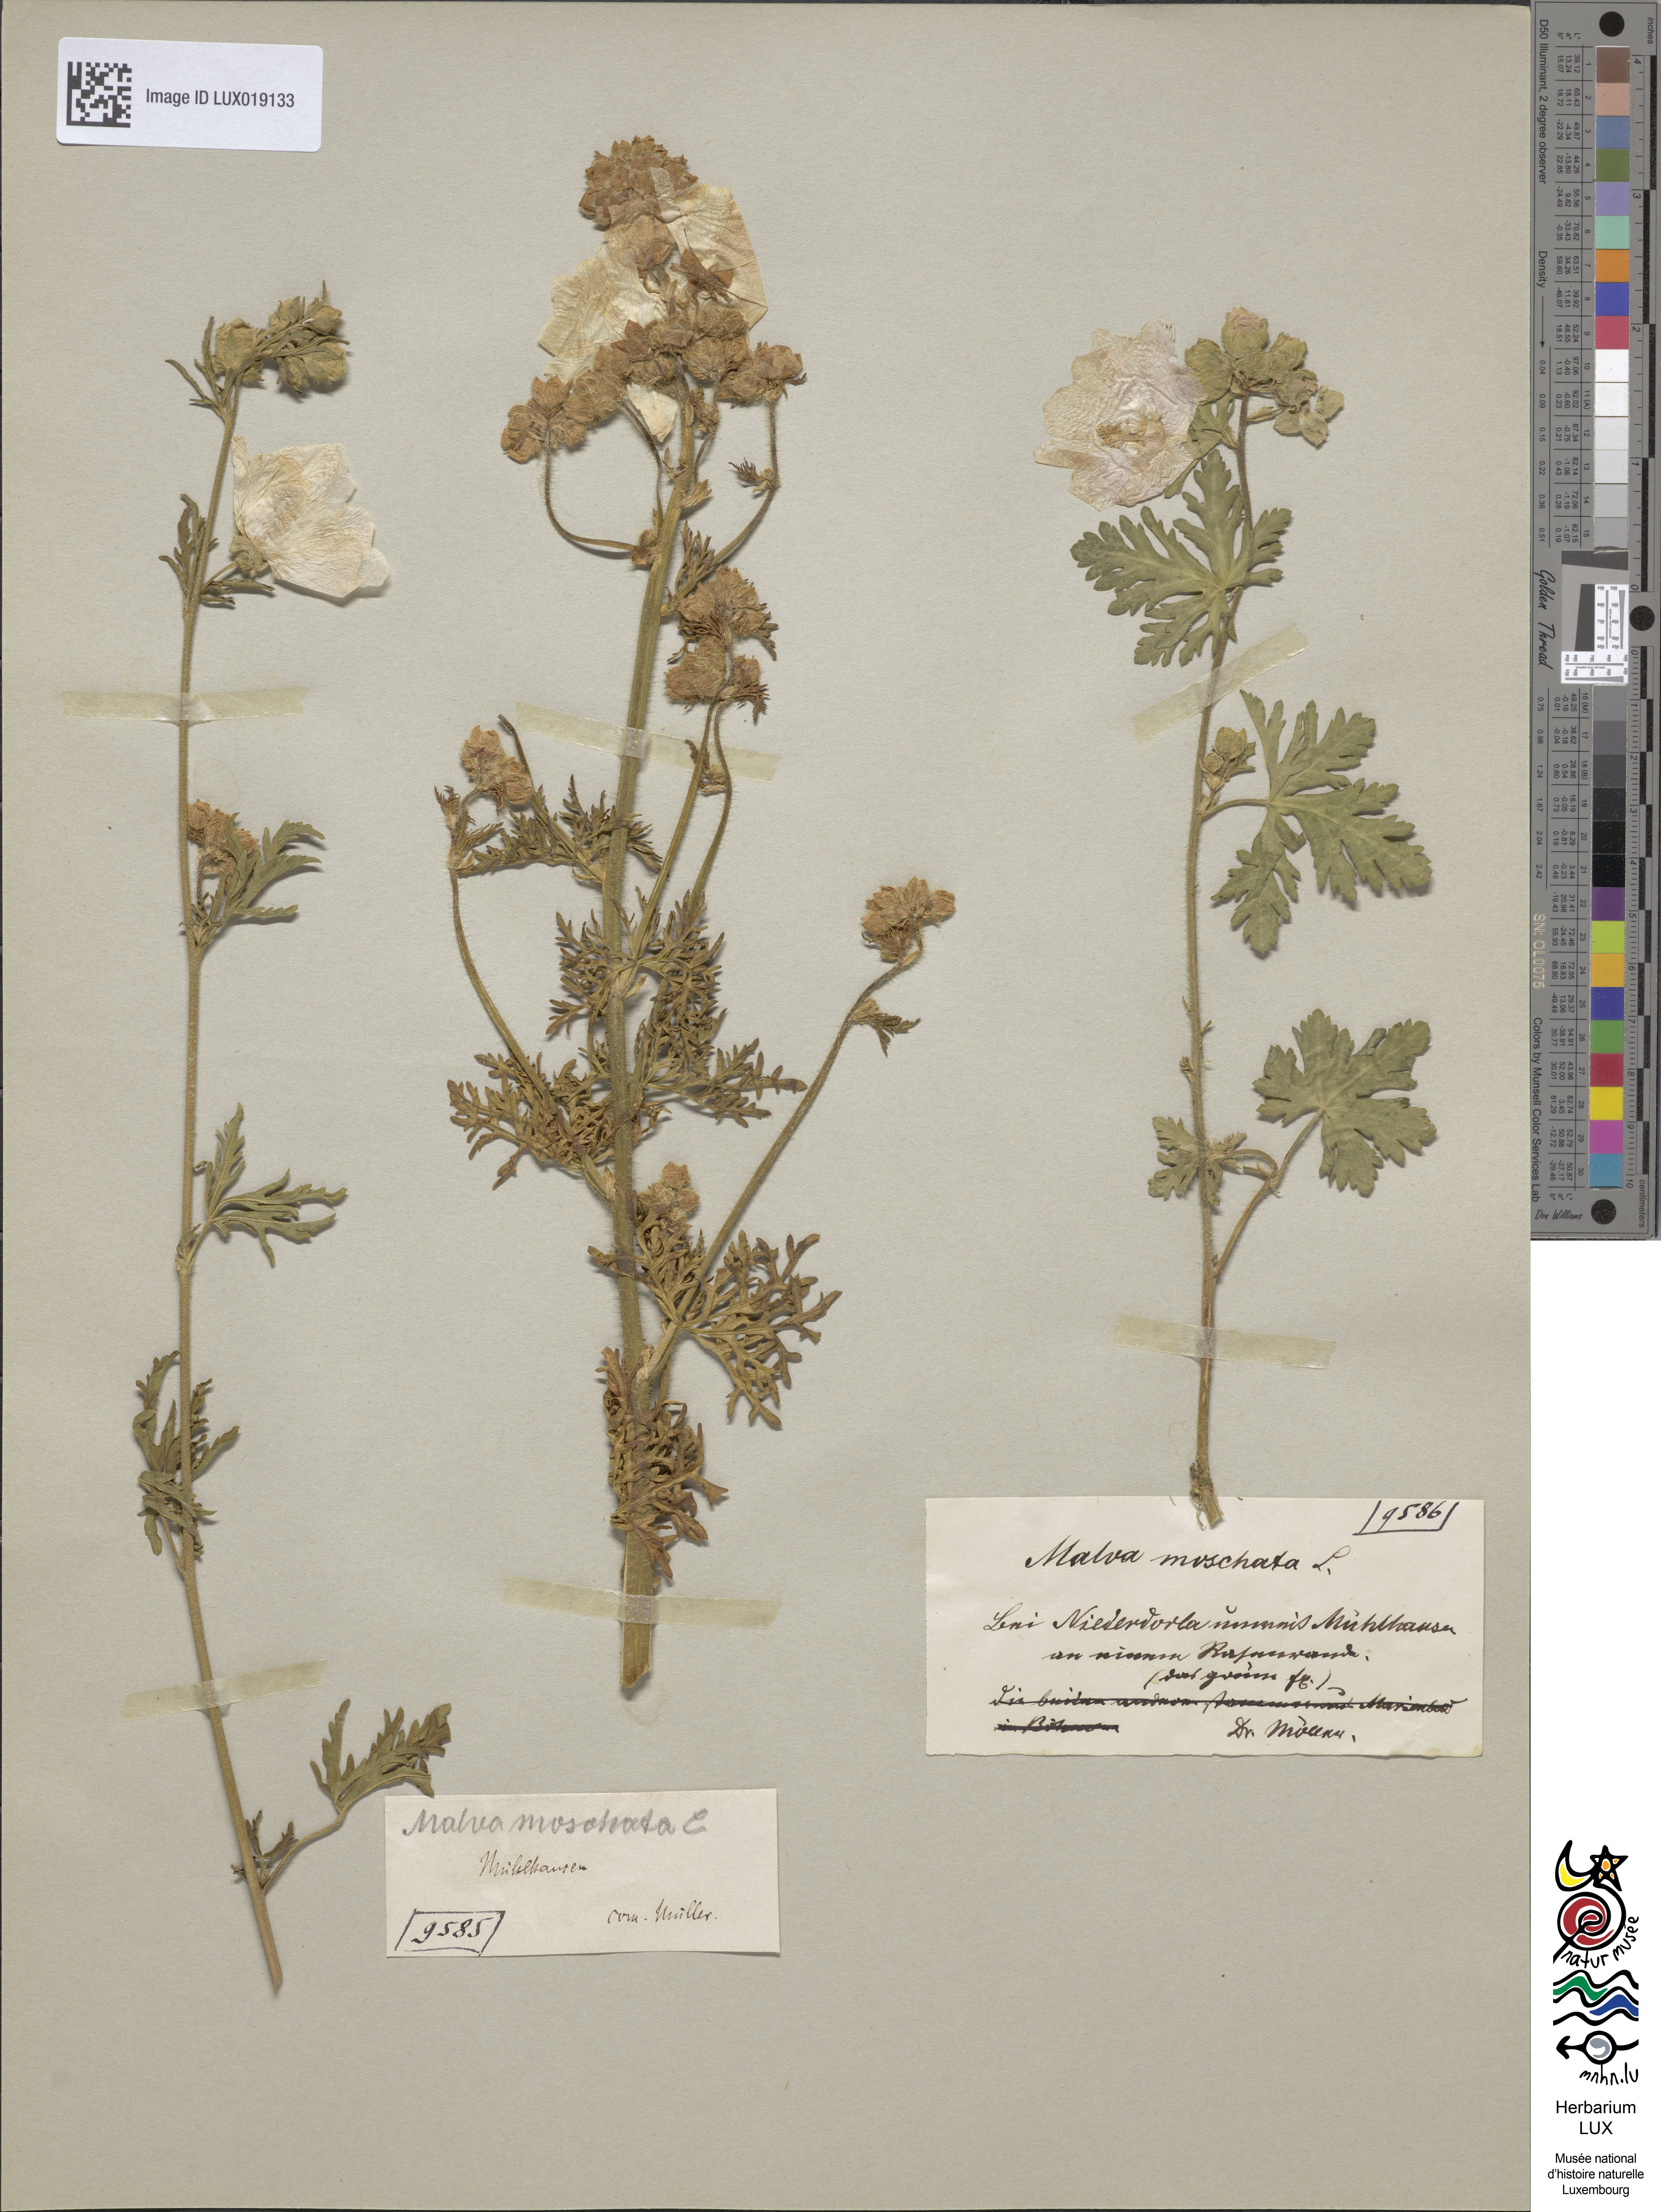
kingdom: Plantae
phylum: Tracheophyta
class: Magnoliopsida
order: Malvales
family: Malvaceae
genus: Malva
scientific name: Malva moschata
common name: Musk mallow
